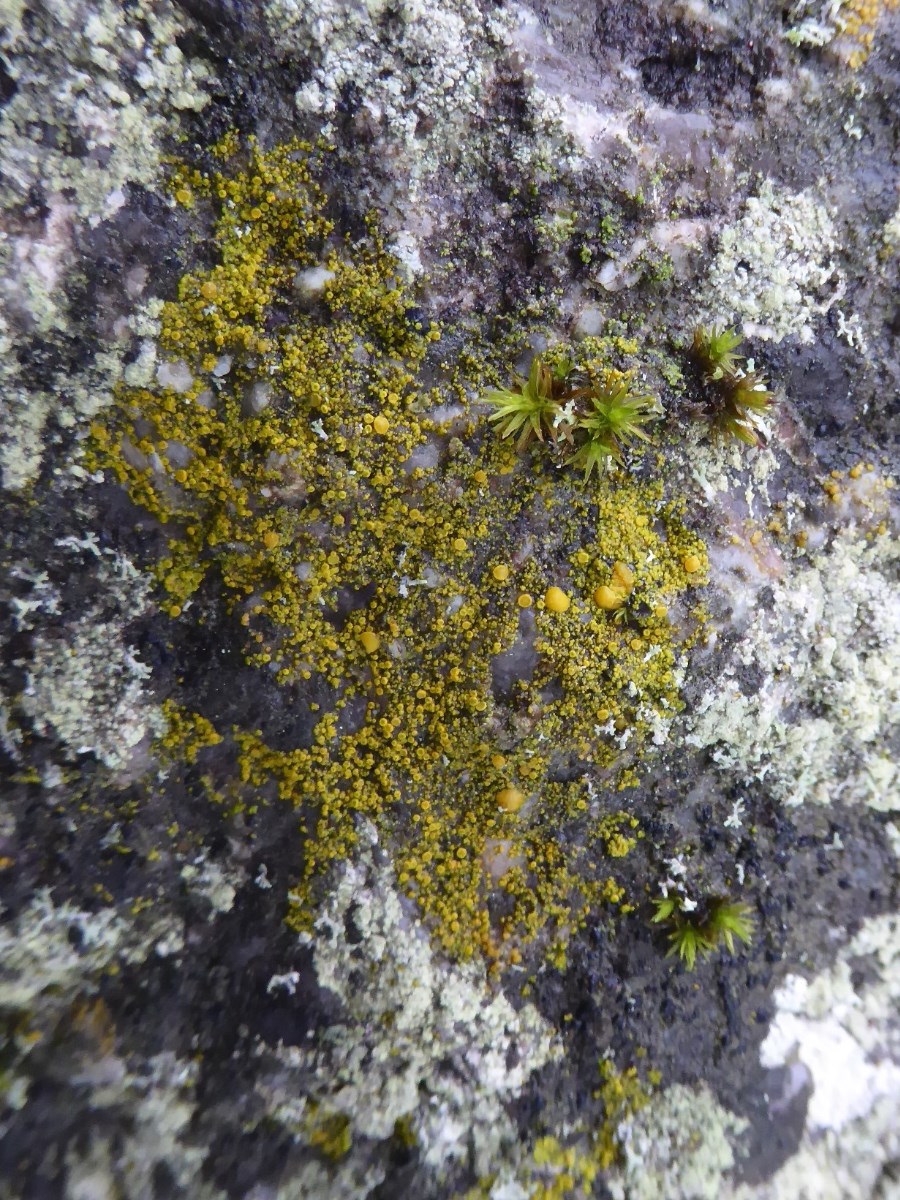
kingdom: Fungi
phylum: Ascomycota
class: Candelariomycetes
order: Candelariales
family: Candelariaceae
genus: Candelariella
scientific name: Candelariella vitellina
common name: almindelig æggeblommelav
